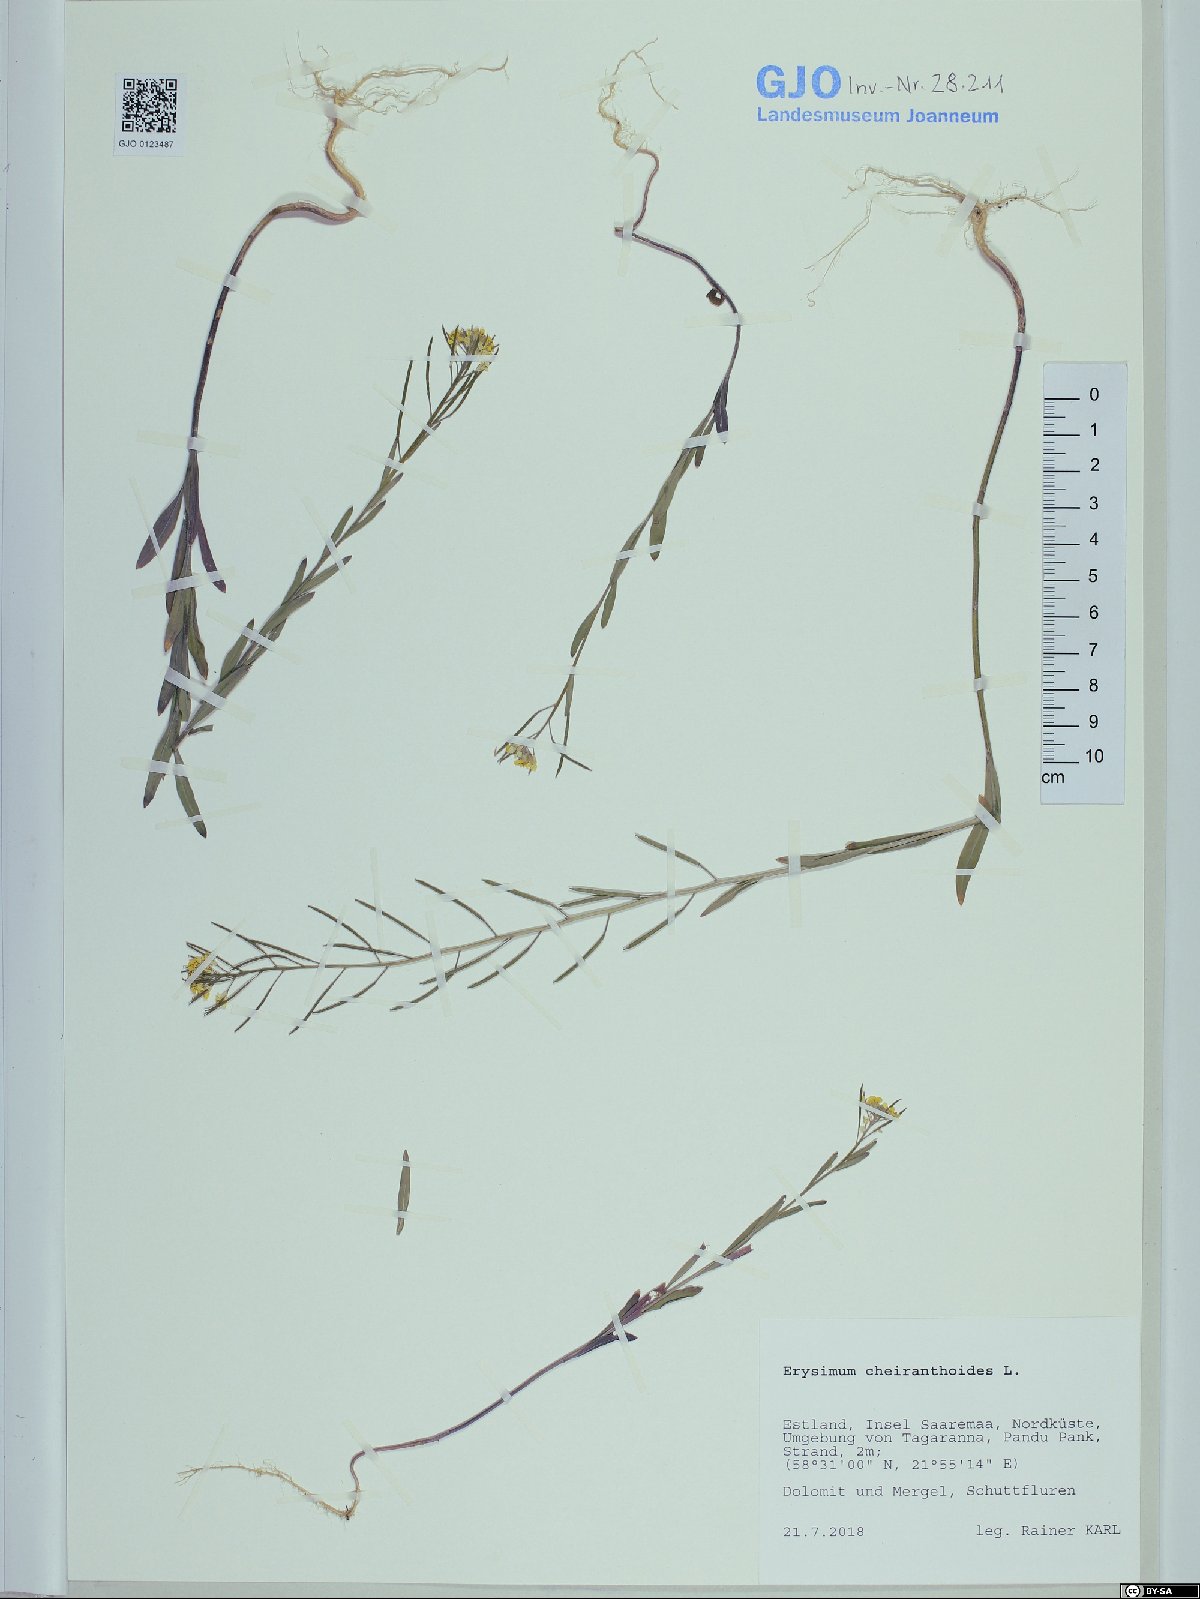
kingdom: Plantae
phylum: Tracheophyta
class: Magnoliopsida
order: Brassicales
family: Brassicaceae
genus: Erysimum
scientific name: Erysimum cheiranthoides
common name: Treacle mustard
